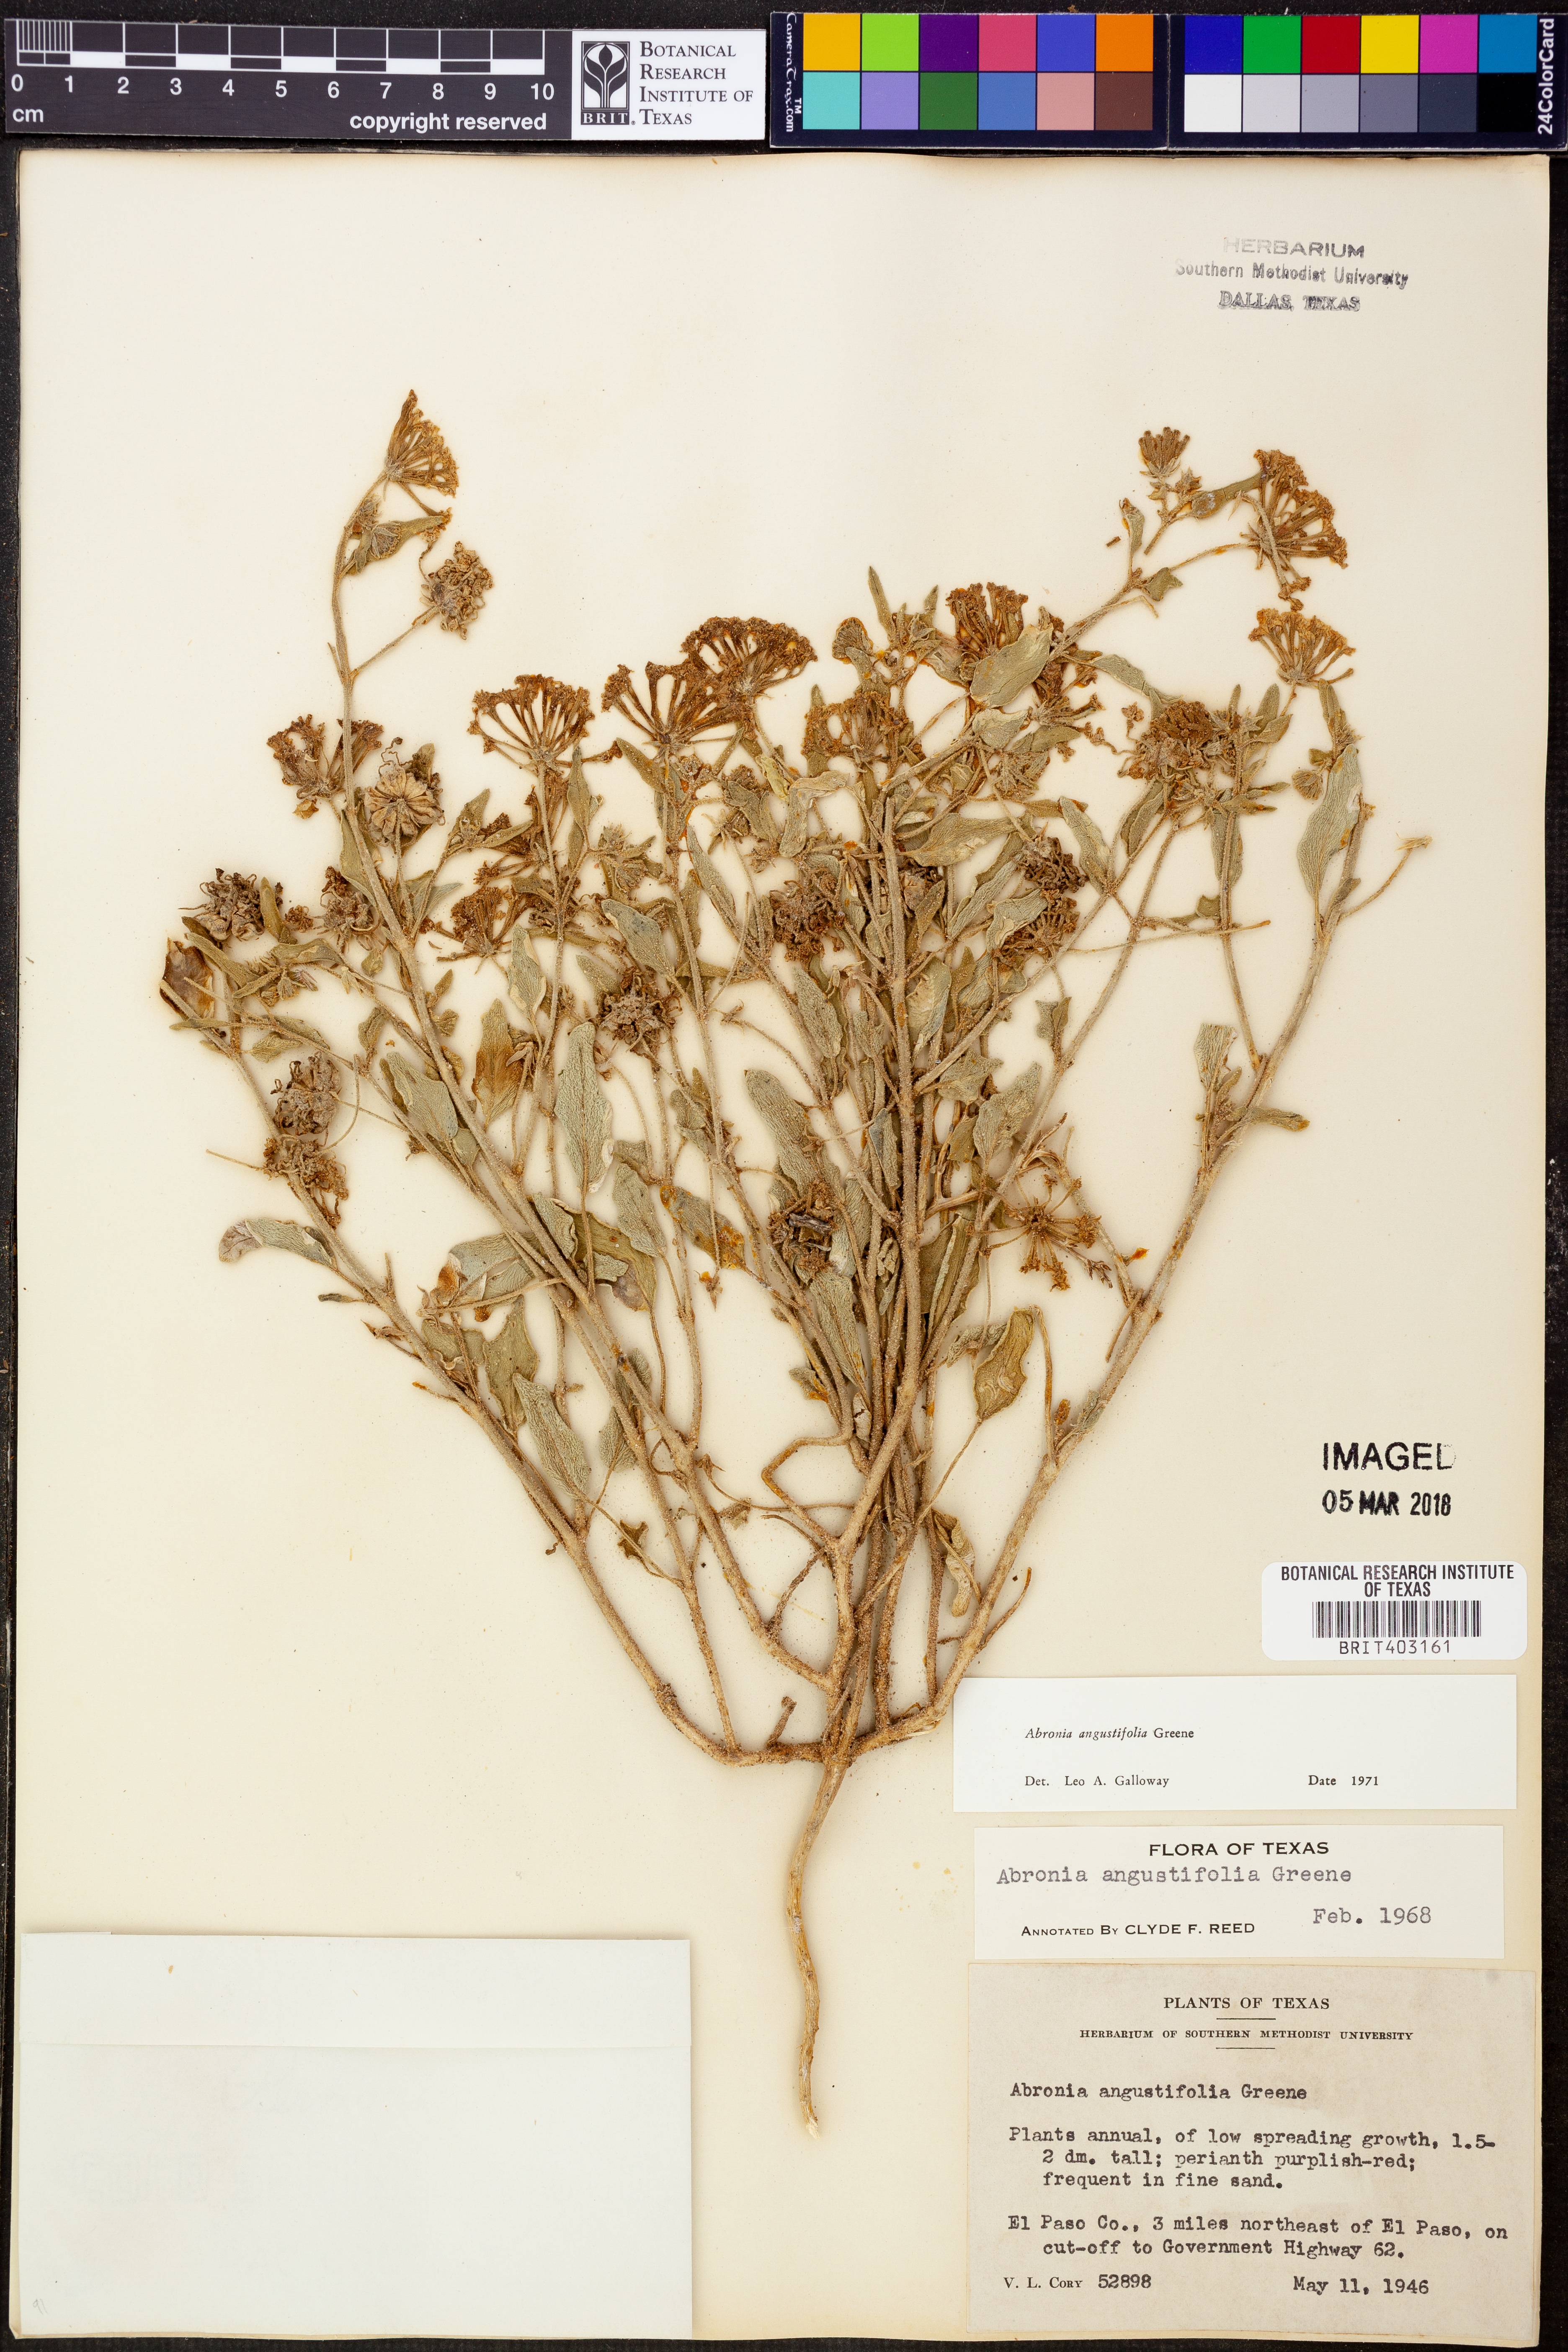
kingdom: Plantae
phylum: Tracheophyta
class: Magnoliopsida
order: Caryophyllales
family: Nyctaginaceae
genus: Abronia
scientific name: Abronia angustifolia
